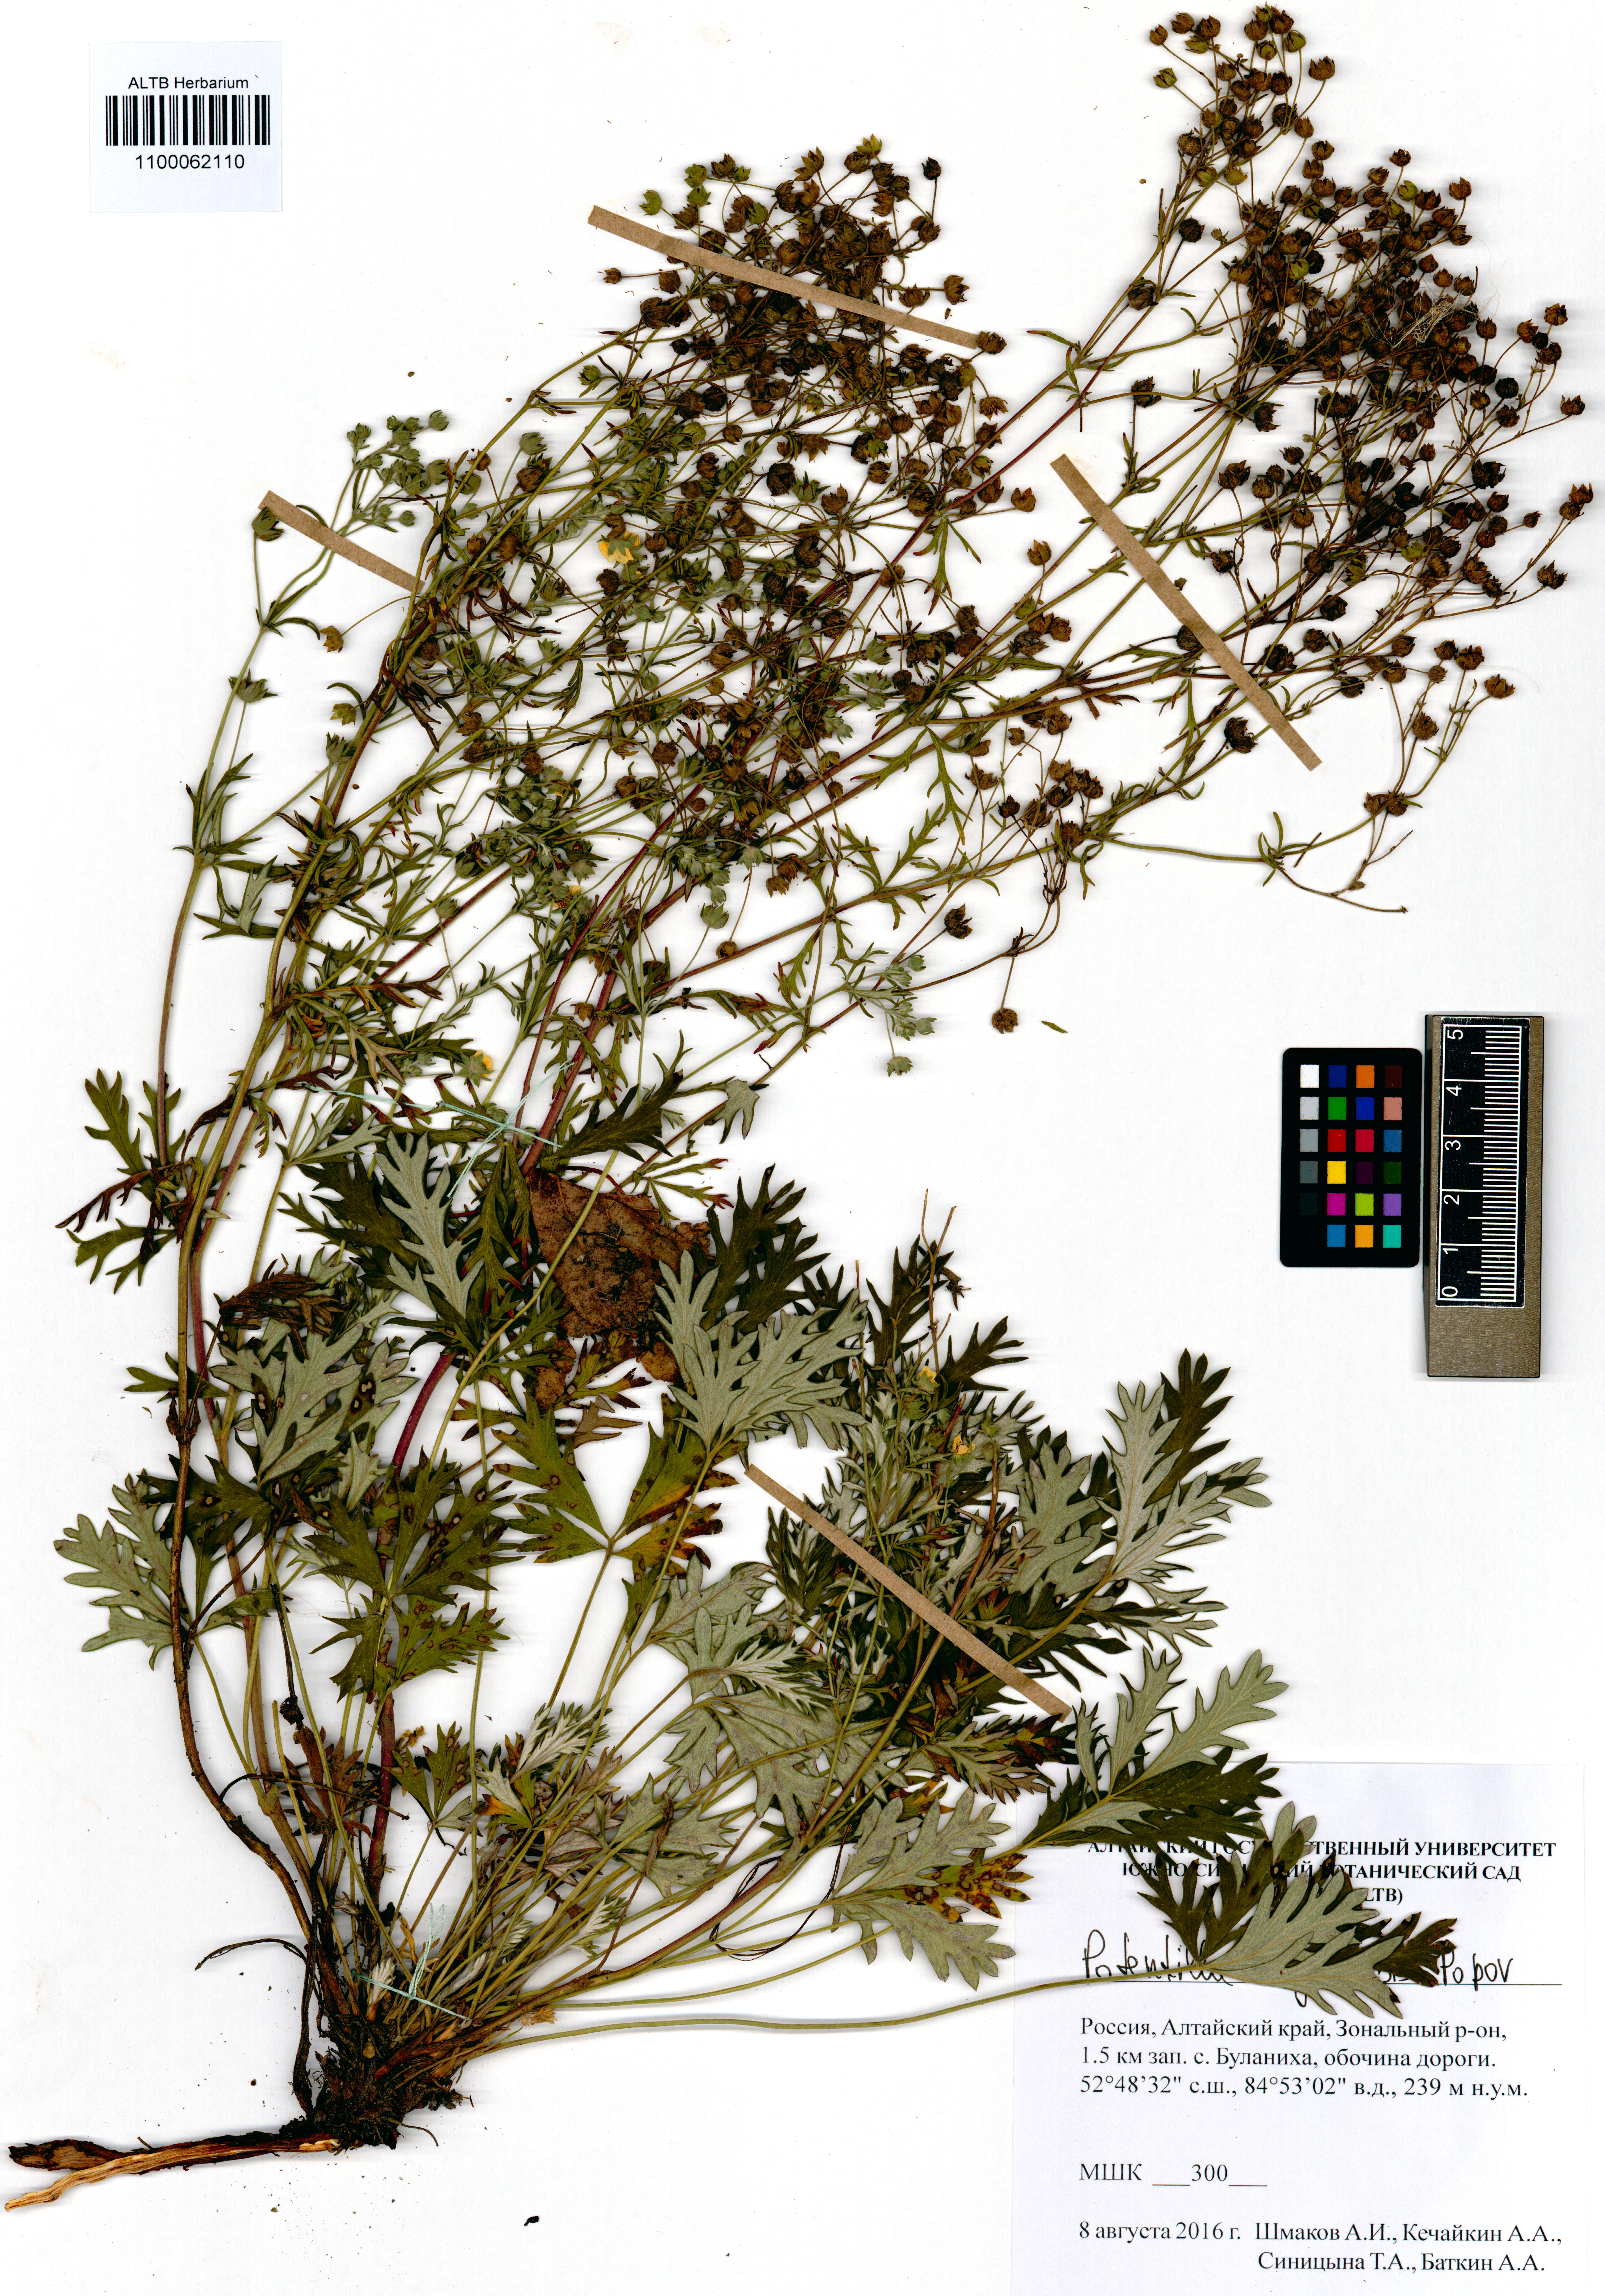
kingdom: Plantae
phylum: Tracheophyta
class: Magnoliopsida
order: Rosales
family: Rosaceae
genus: Potentilla
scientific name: Potentilla angarensis
